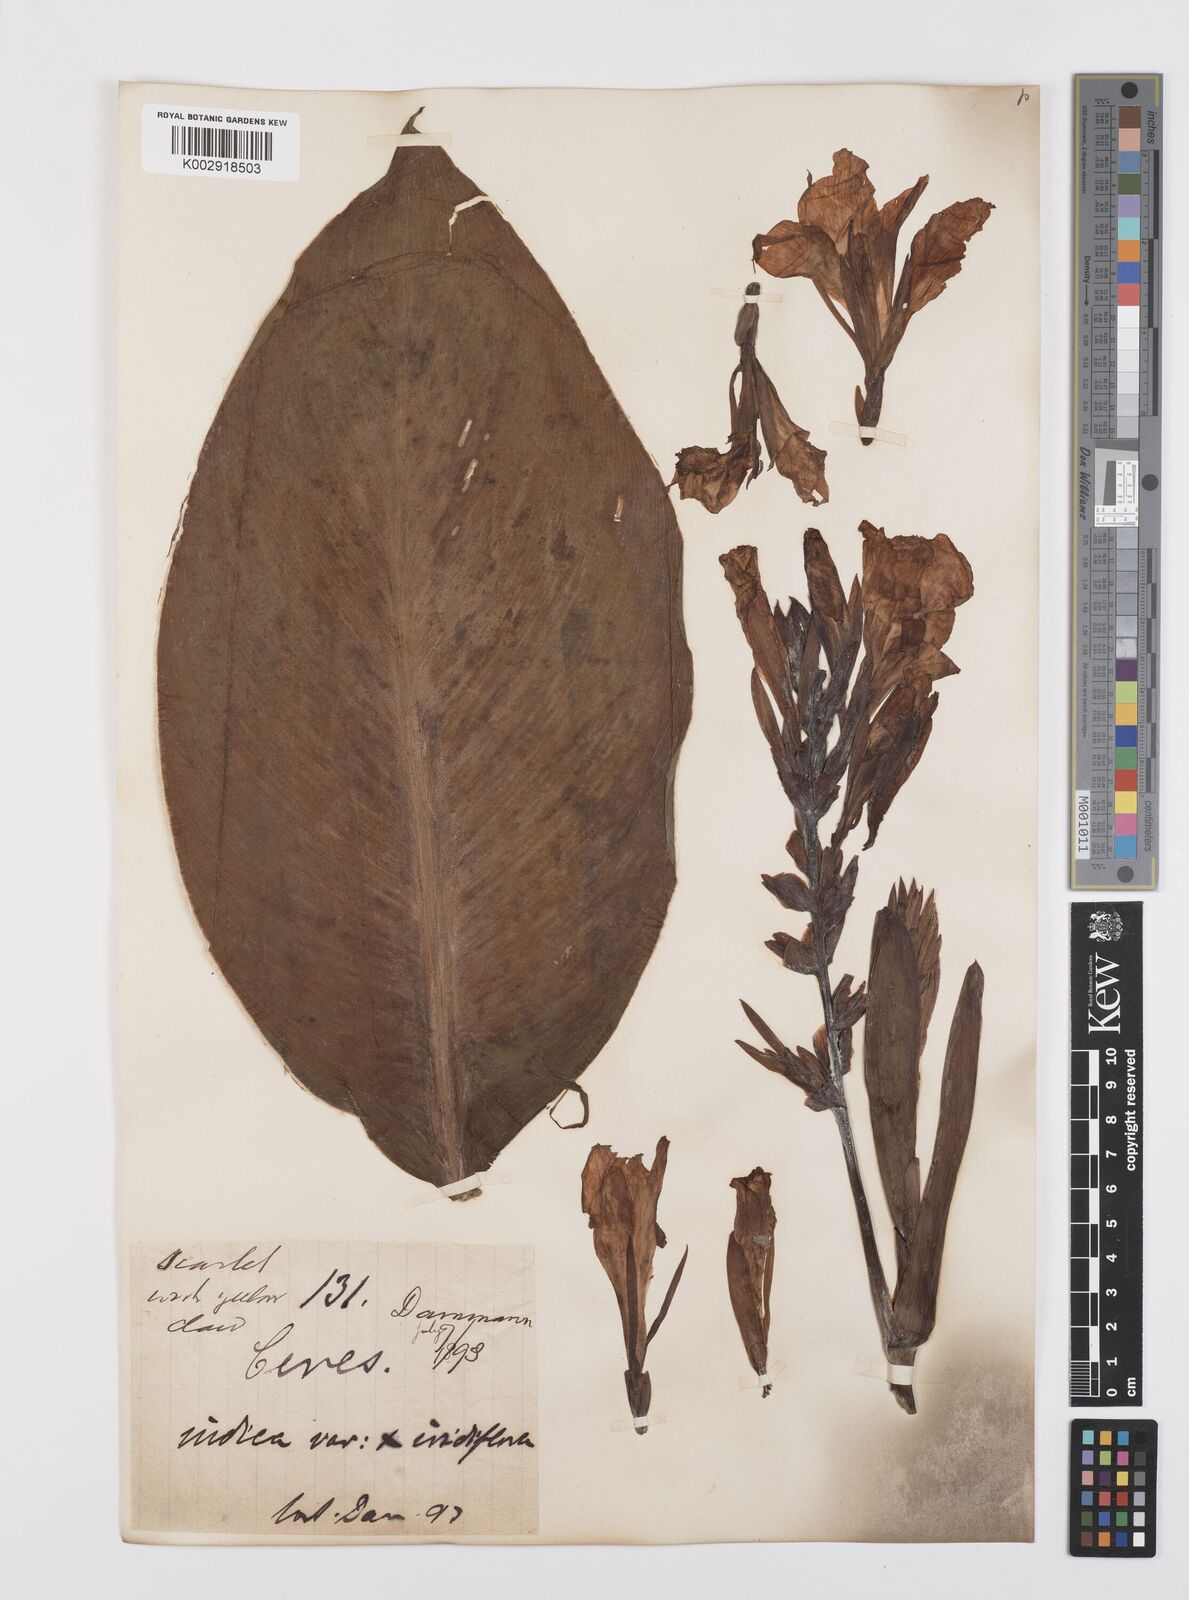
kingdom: Plantae
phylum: Tracheophyta
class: Liliopsida
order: Zingiberales
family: Cannaceae
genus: Canna
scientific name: Canna indica
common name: Indian shot
